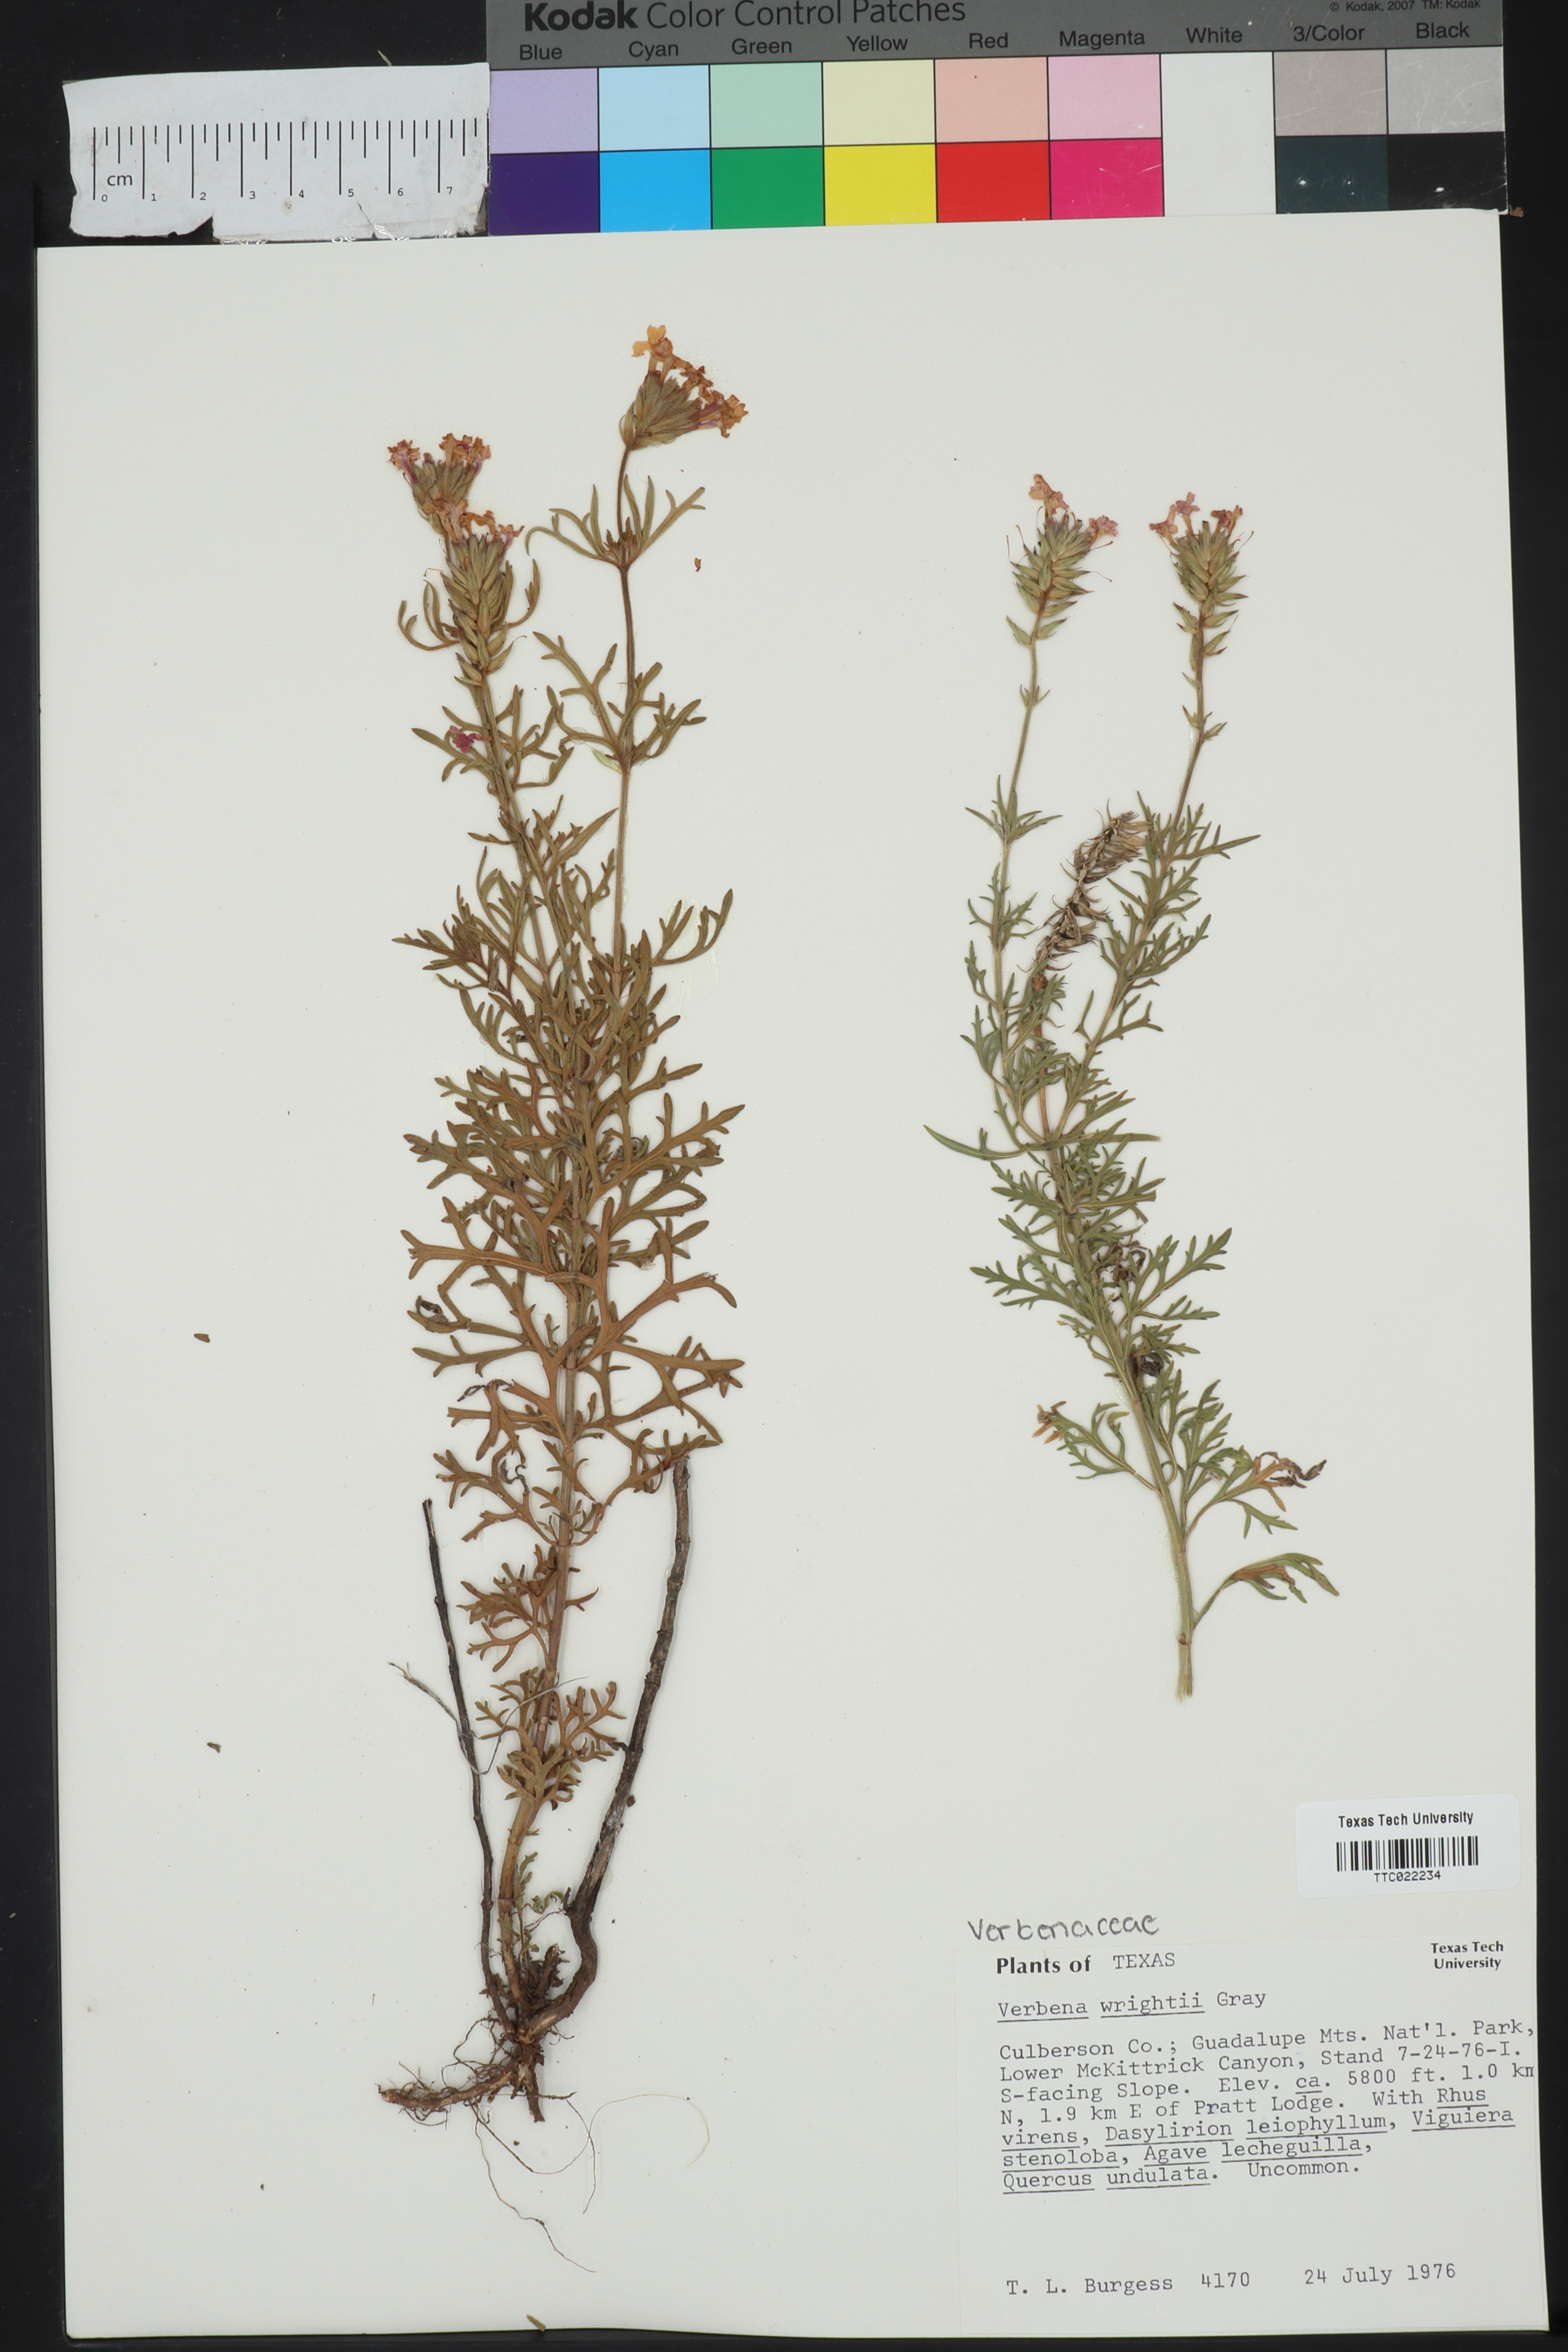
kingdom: Plantae
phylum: Tracheophyta
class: Magnoliopsida
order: Lamiales
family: Verbenaceae
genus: Verbena
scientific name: Verbena bipinnatifida
